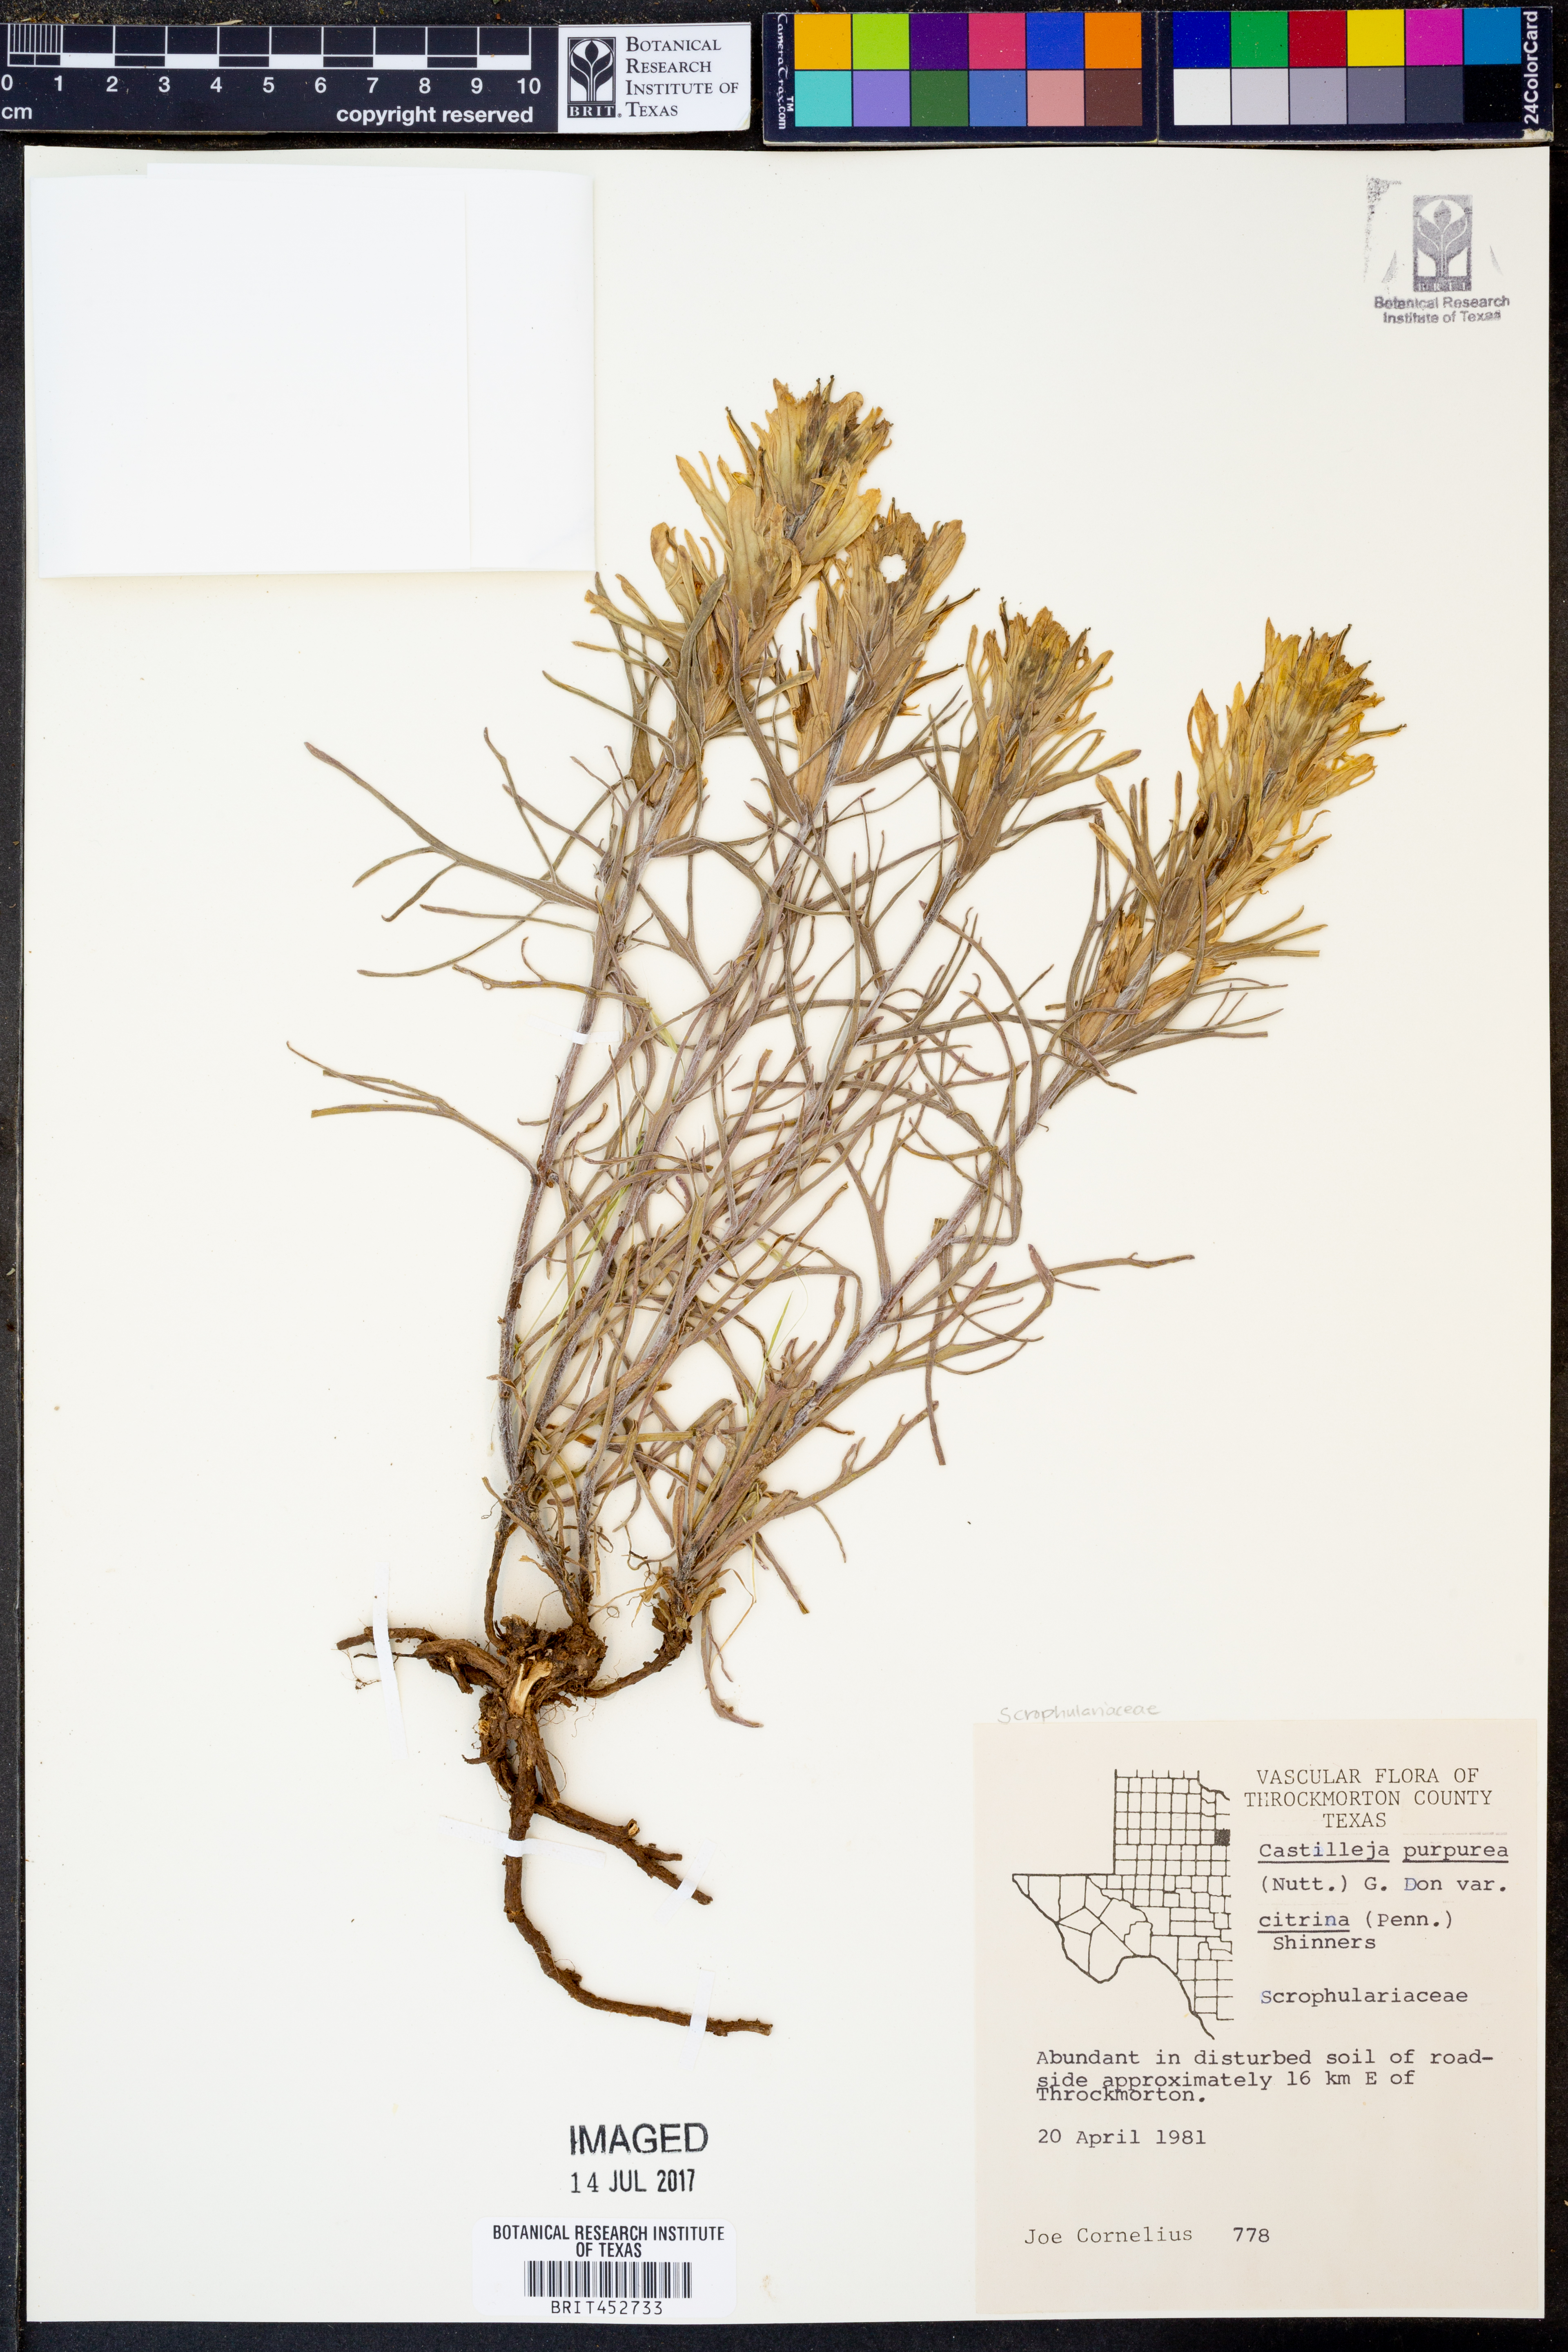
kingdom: Plantae
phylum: Tracheophyta
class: Magnoliopsida
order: Lamiales
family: Orobanchaceae
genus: Castilleja
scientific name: Castilleja citrina
